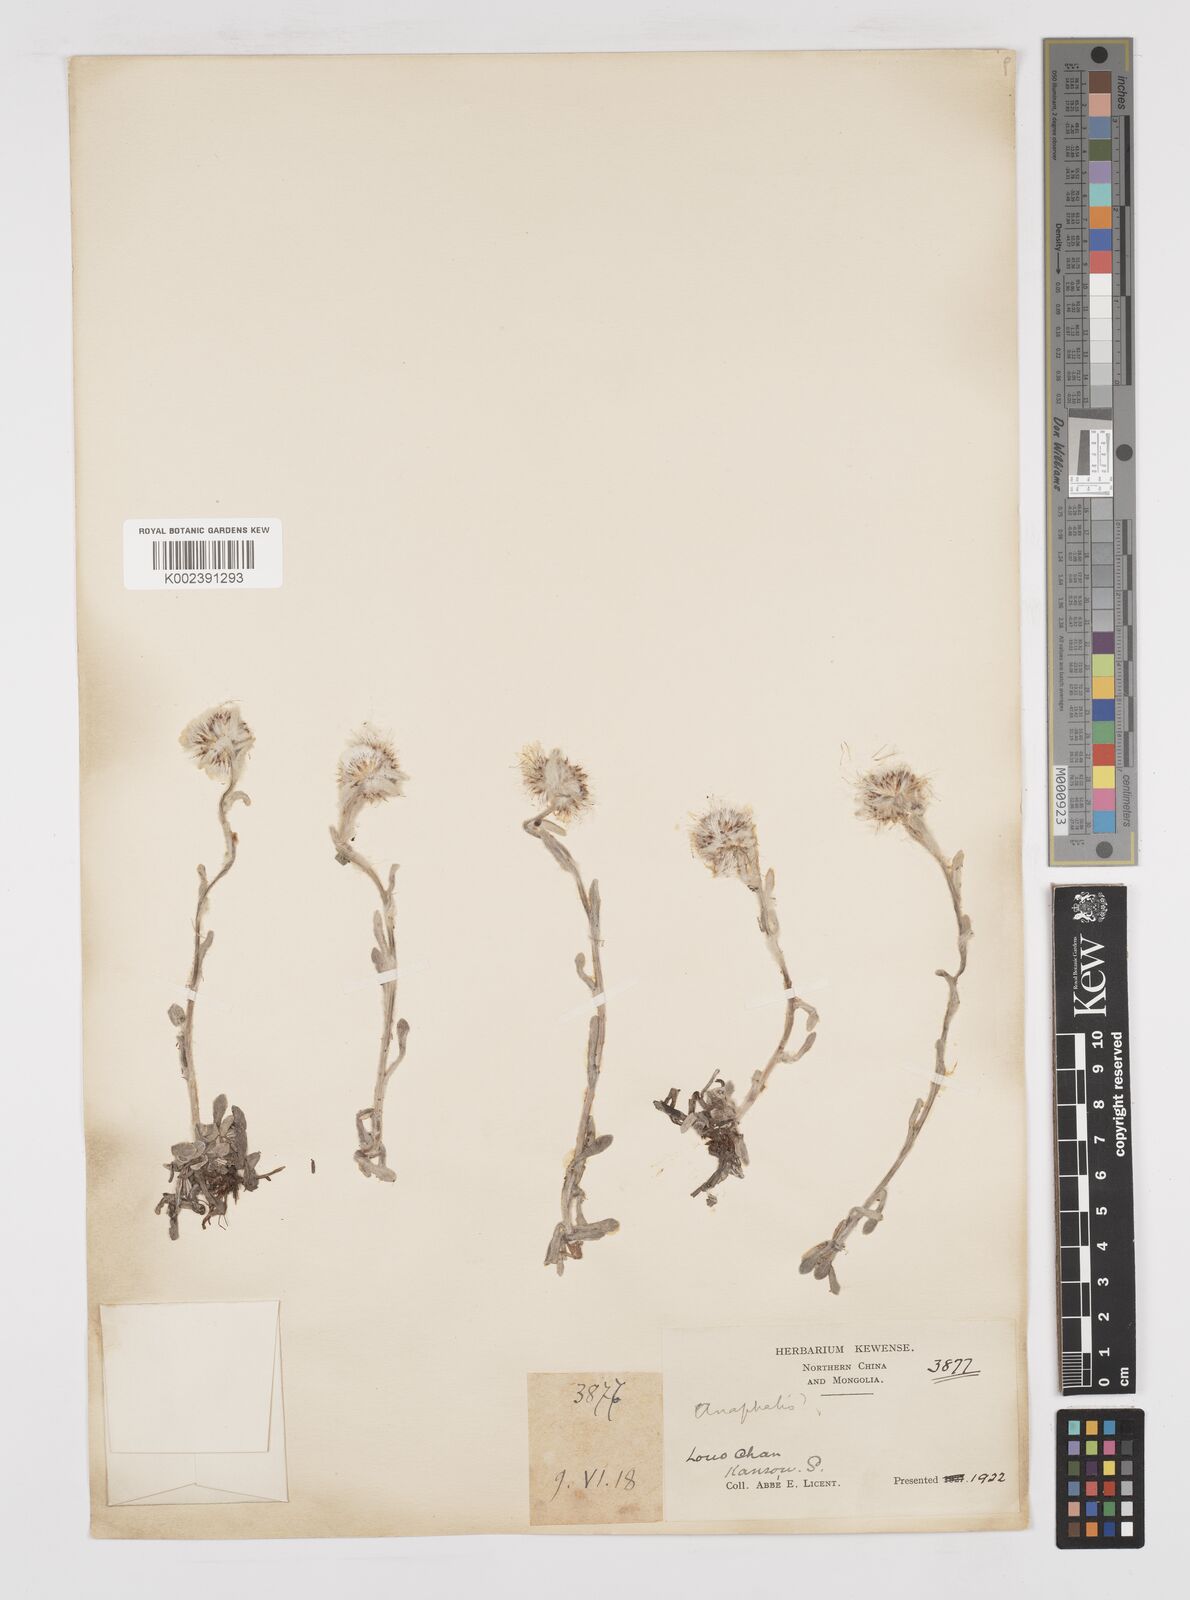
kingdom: Plantae
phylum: Tracheophyta
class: Magnoliopsida
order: Asterales
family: Asteraceae
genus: Anaphalis
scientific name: Anaphalis sinica
